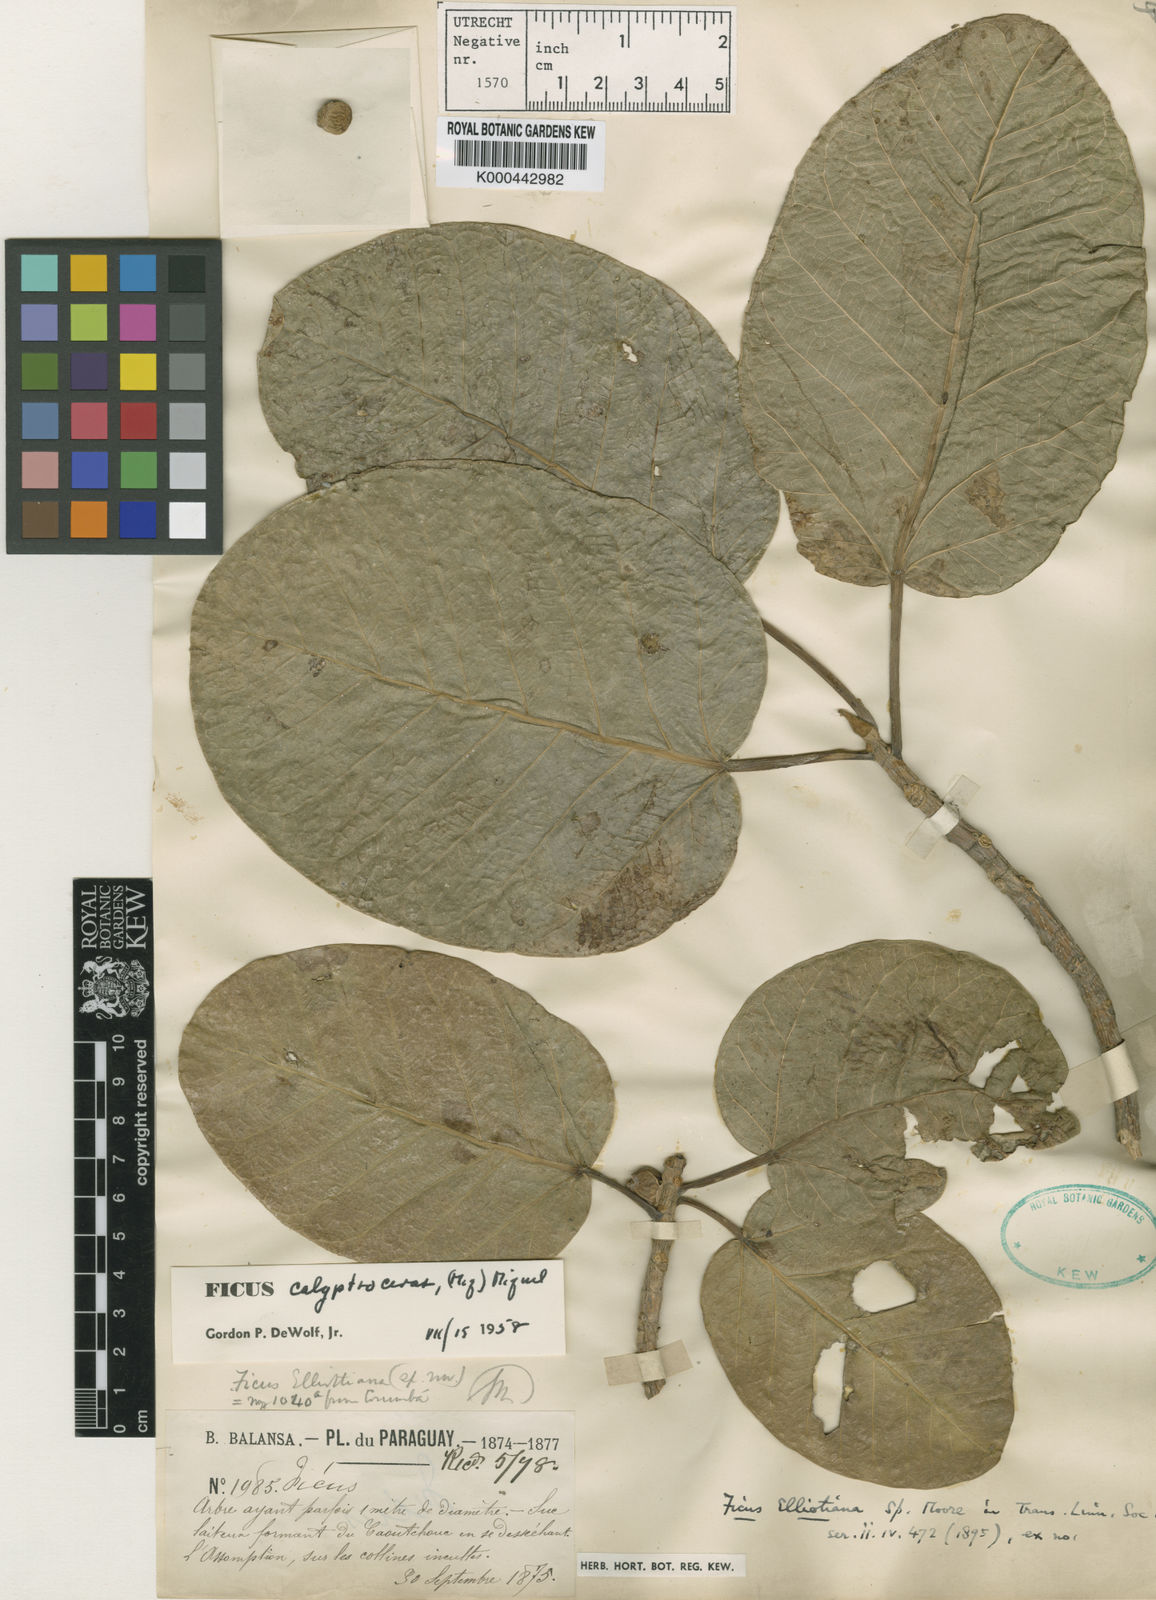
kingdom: Plantae
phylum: Tracheophyta
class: Magnoliopsida
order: Rosales
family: Moraceae
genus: Ficus
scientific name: Ficus calyptroceras
